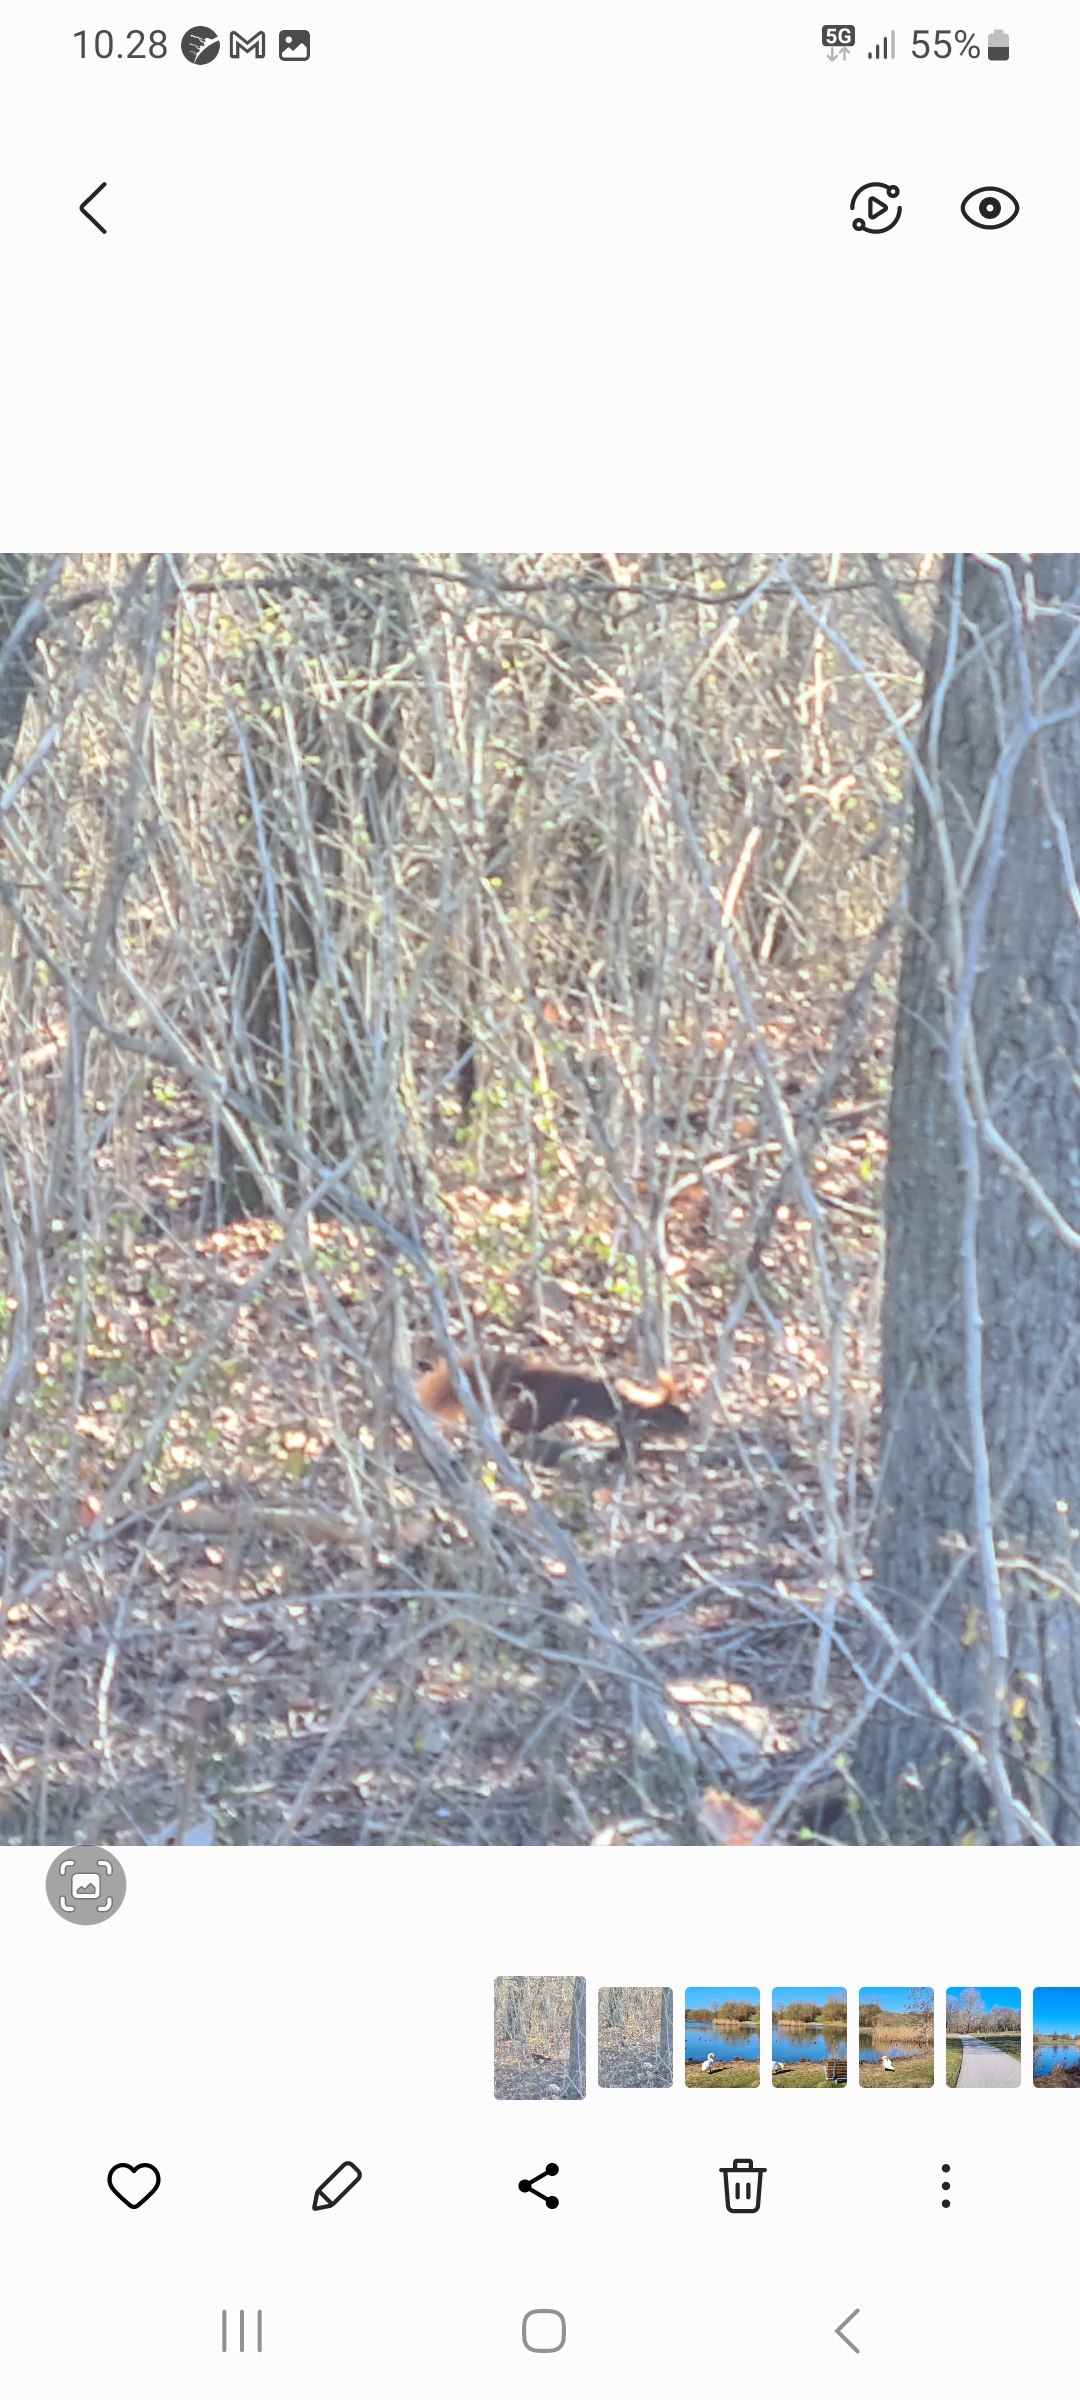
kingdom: Animalia
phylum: Chordata
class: Mammalia
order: Rodentia
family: Sciuridae
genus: Sciurus
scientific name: Sciurus vulgaris
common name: Egern
